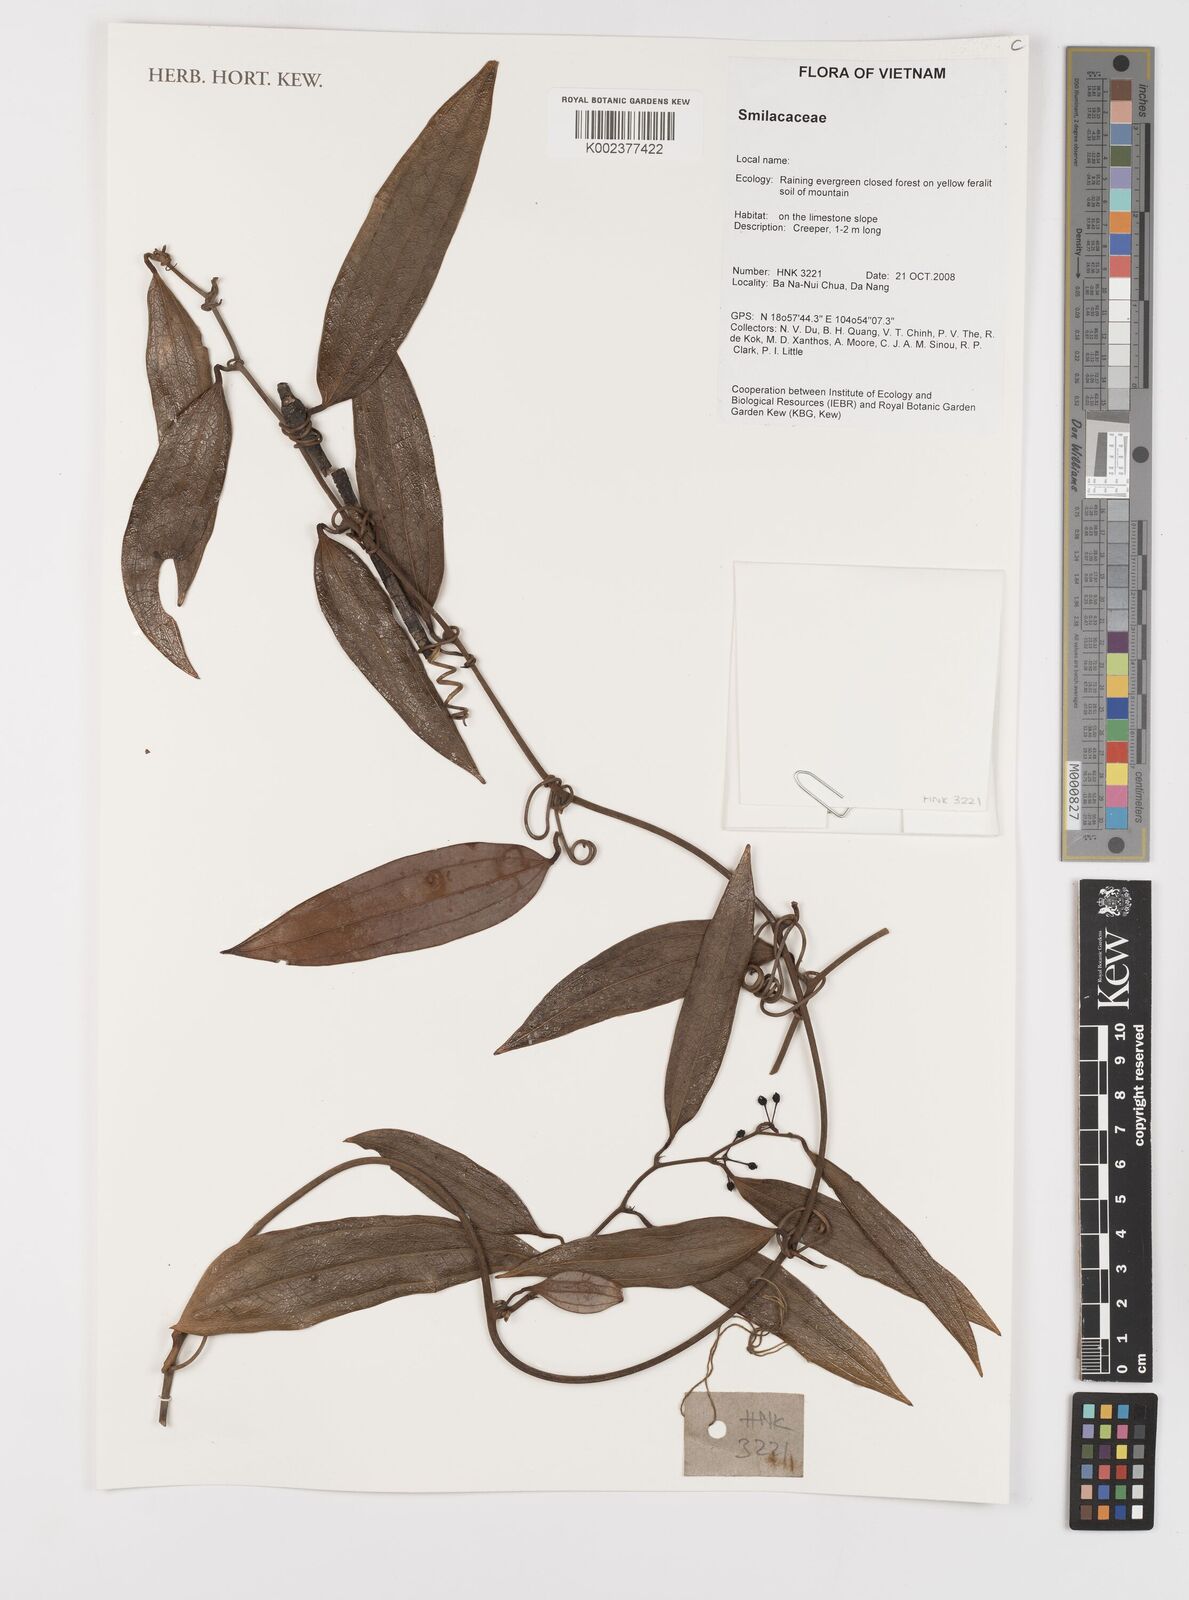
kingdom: Plantae
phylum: Tracheophyta
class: Liliopsida
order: Liliales
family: Smilacaceae
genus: Smilax
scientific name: Smilax
